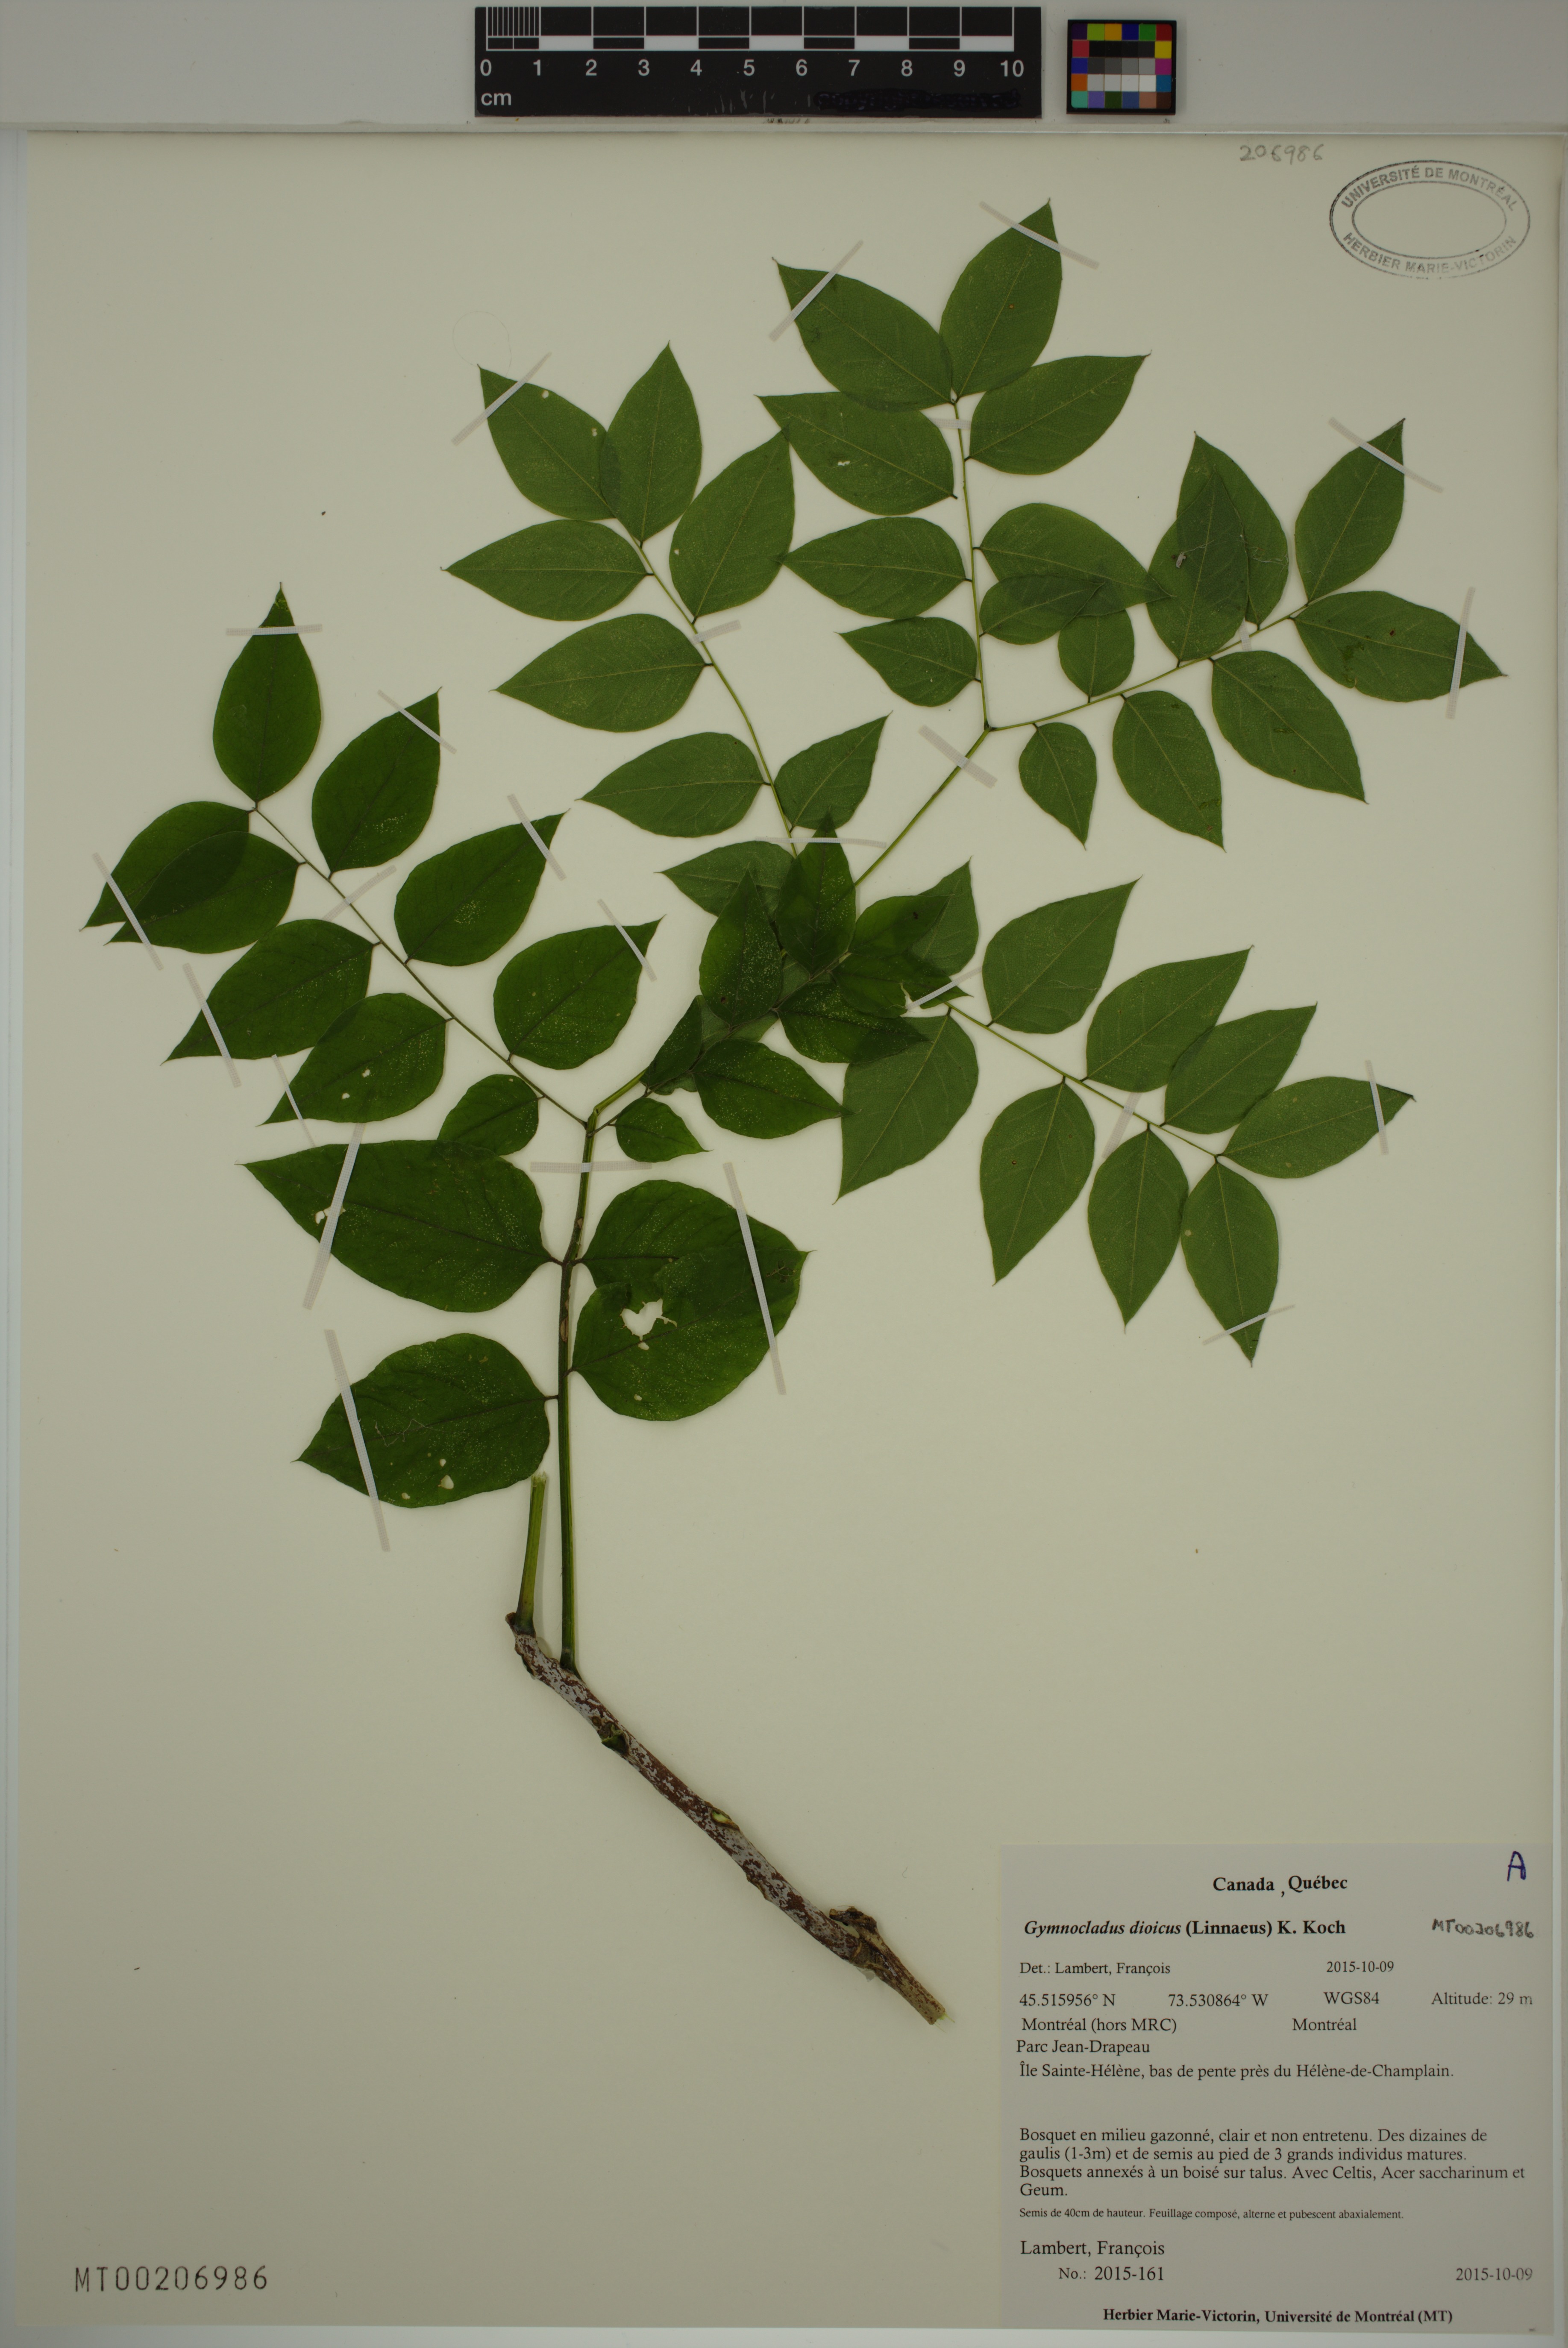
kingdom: Plantae
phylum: Tracheophyta
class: Magnoliopsida
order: Fabales
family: Fabaceae
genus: Gymnocladus
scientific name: Gymnocladus dioicus
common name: Kentucky coffee-tree
